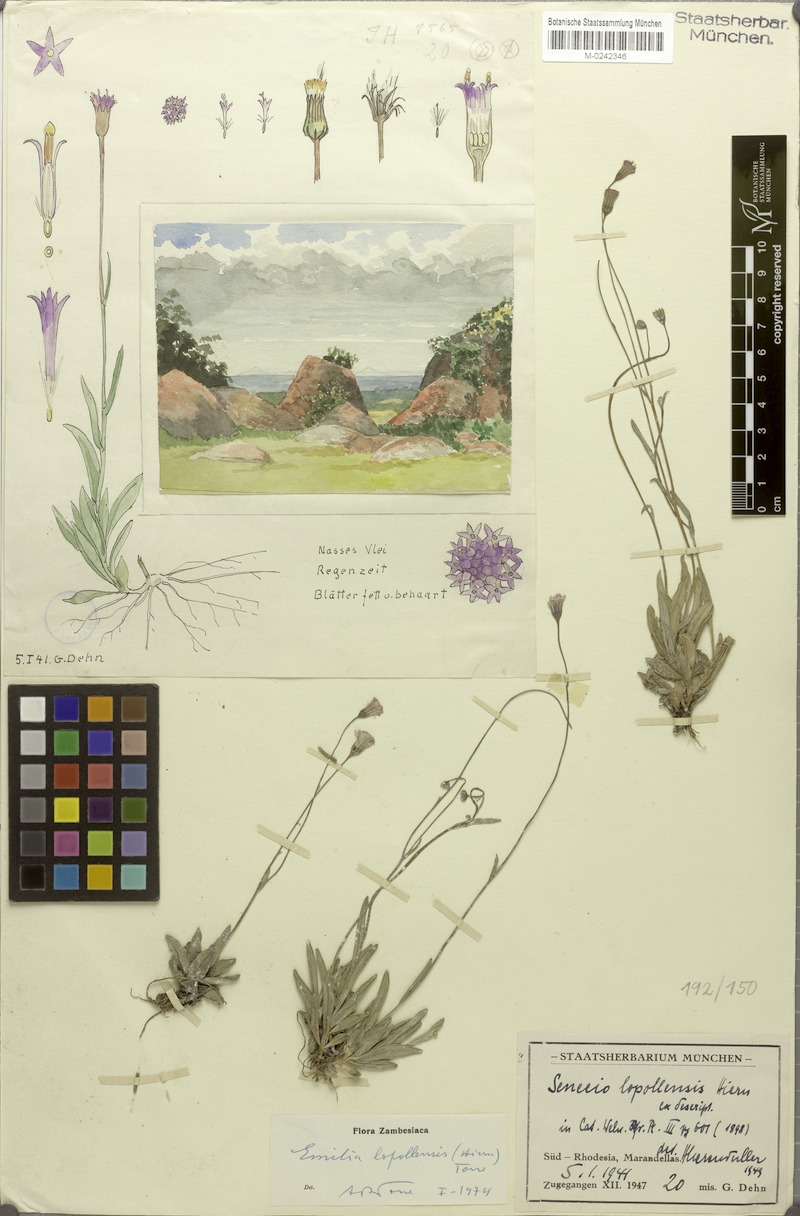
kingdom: Plantae
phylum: Tracheophyta
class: Magnoliopsida
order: Asterales
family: Asteraceae
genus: Emilia
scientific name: Emilia lopollensis
